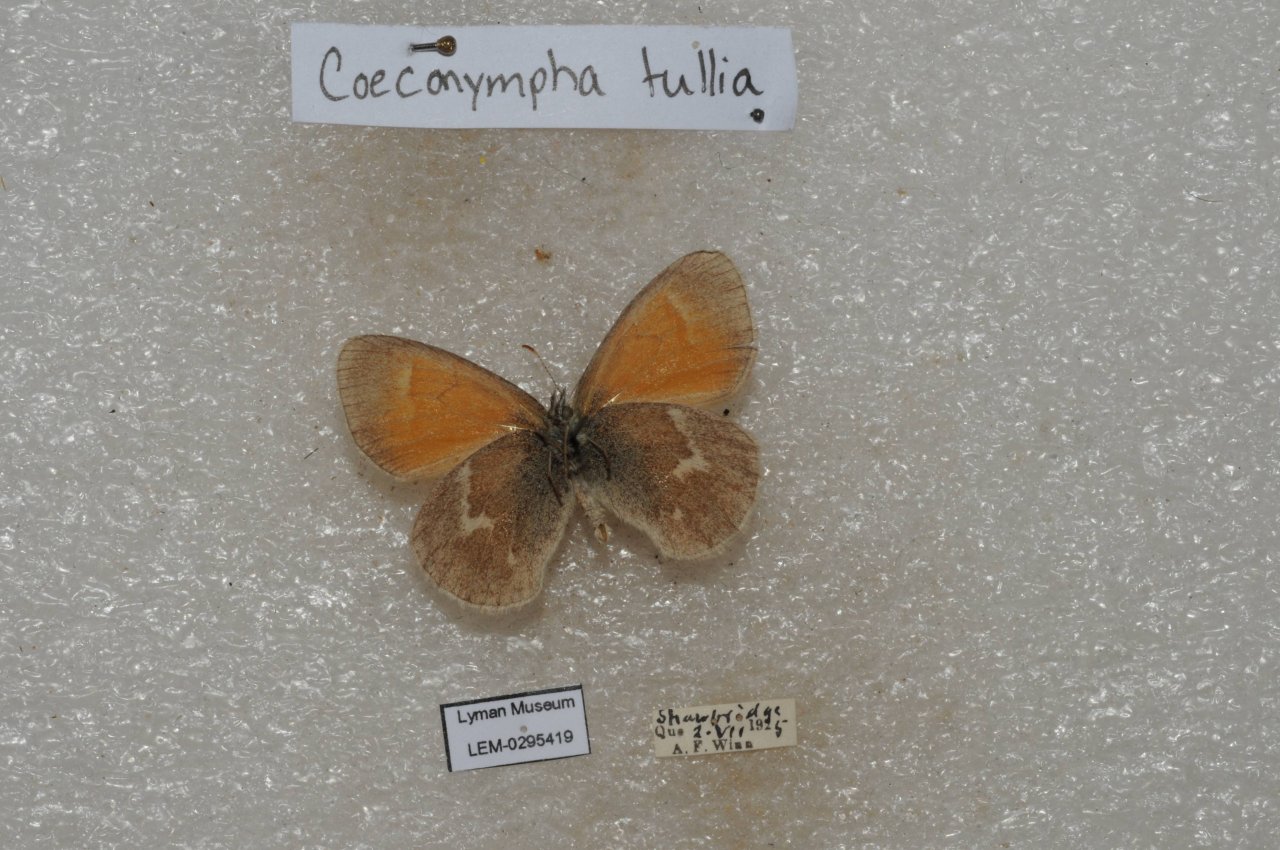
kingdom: Animalia
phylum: Arthropoda
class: Insecta
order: Lepidoptera
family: Nymphalidae
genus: Coenonympha
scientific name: Coenonympha tullia
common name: Large Heath
